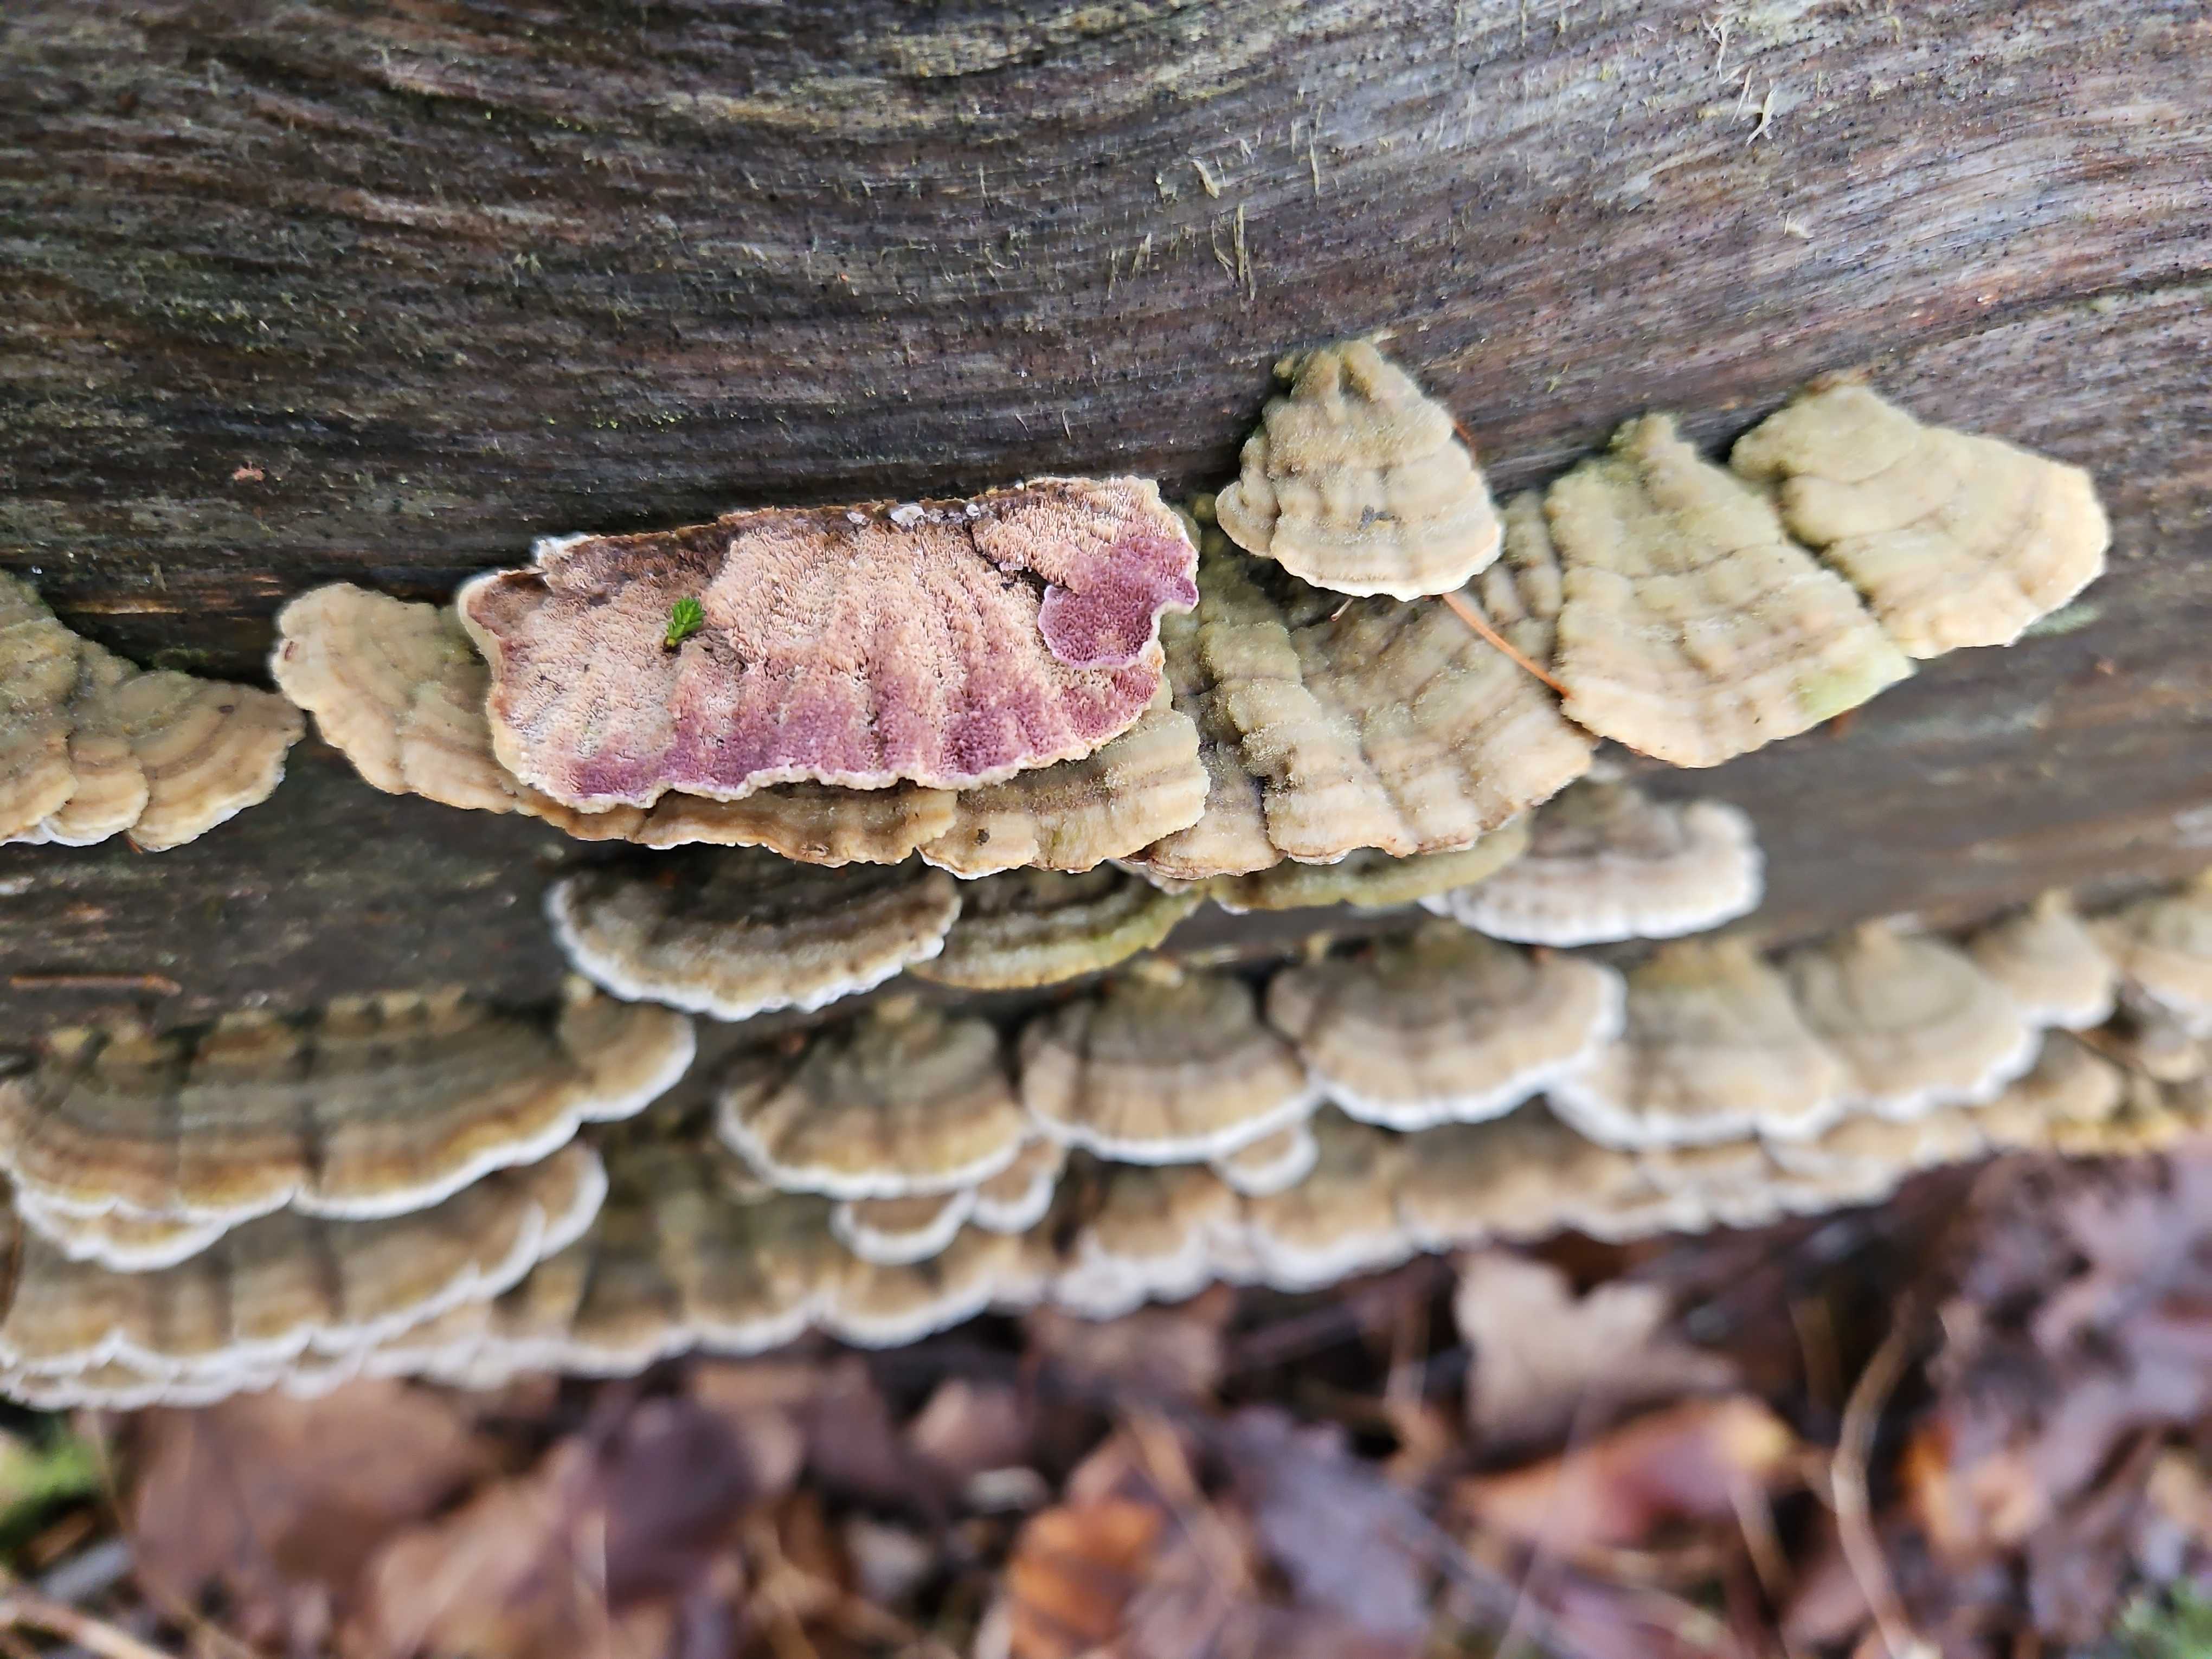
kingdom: Fungi
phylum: Basidiomycota
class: Agaricomycetes
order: Hymenochaetales
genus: Trichaptum
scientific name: Trichaptum abietinum
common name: almindelig violporesvamp
